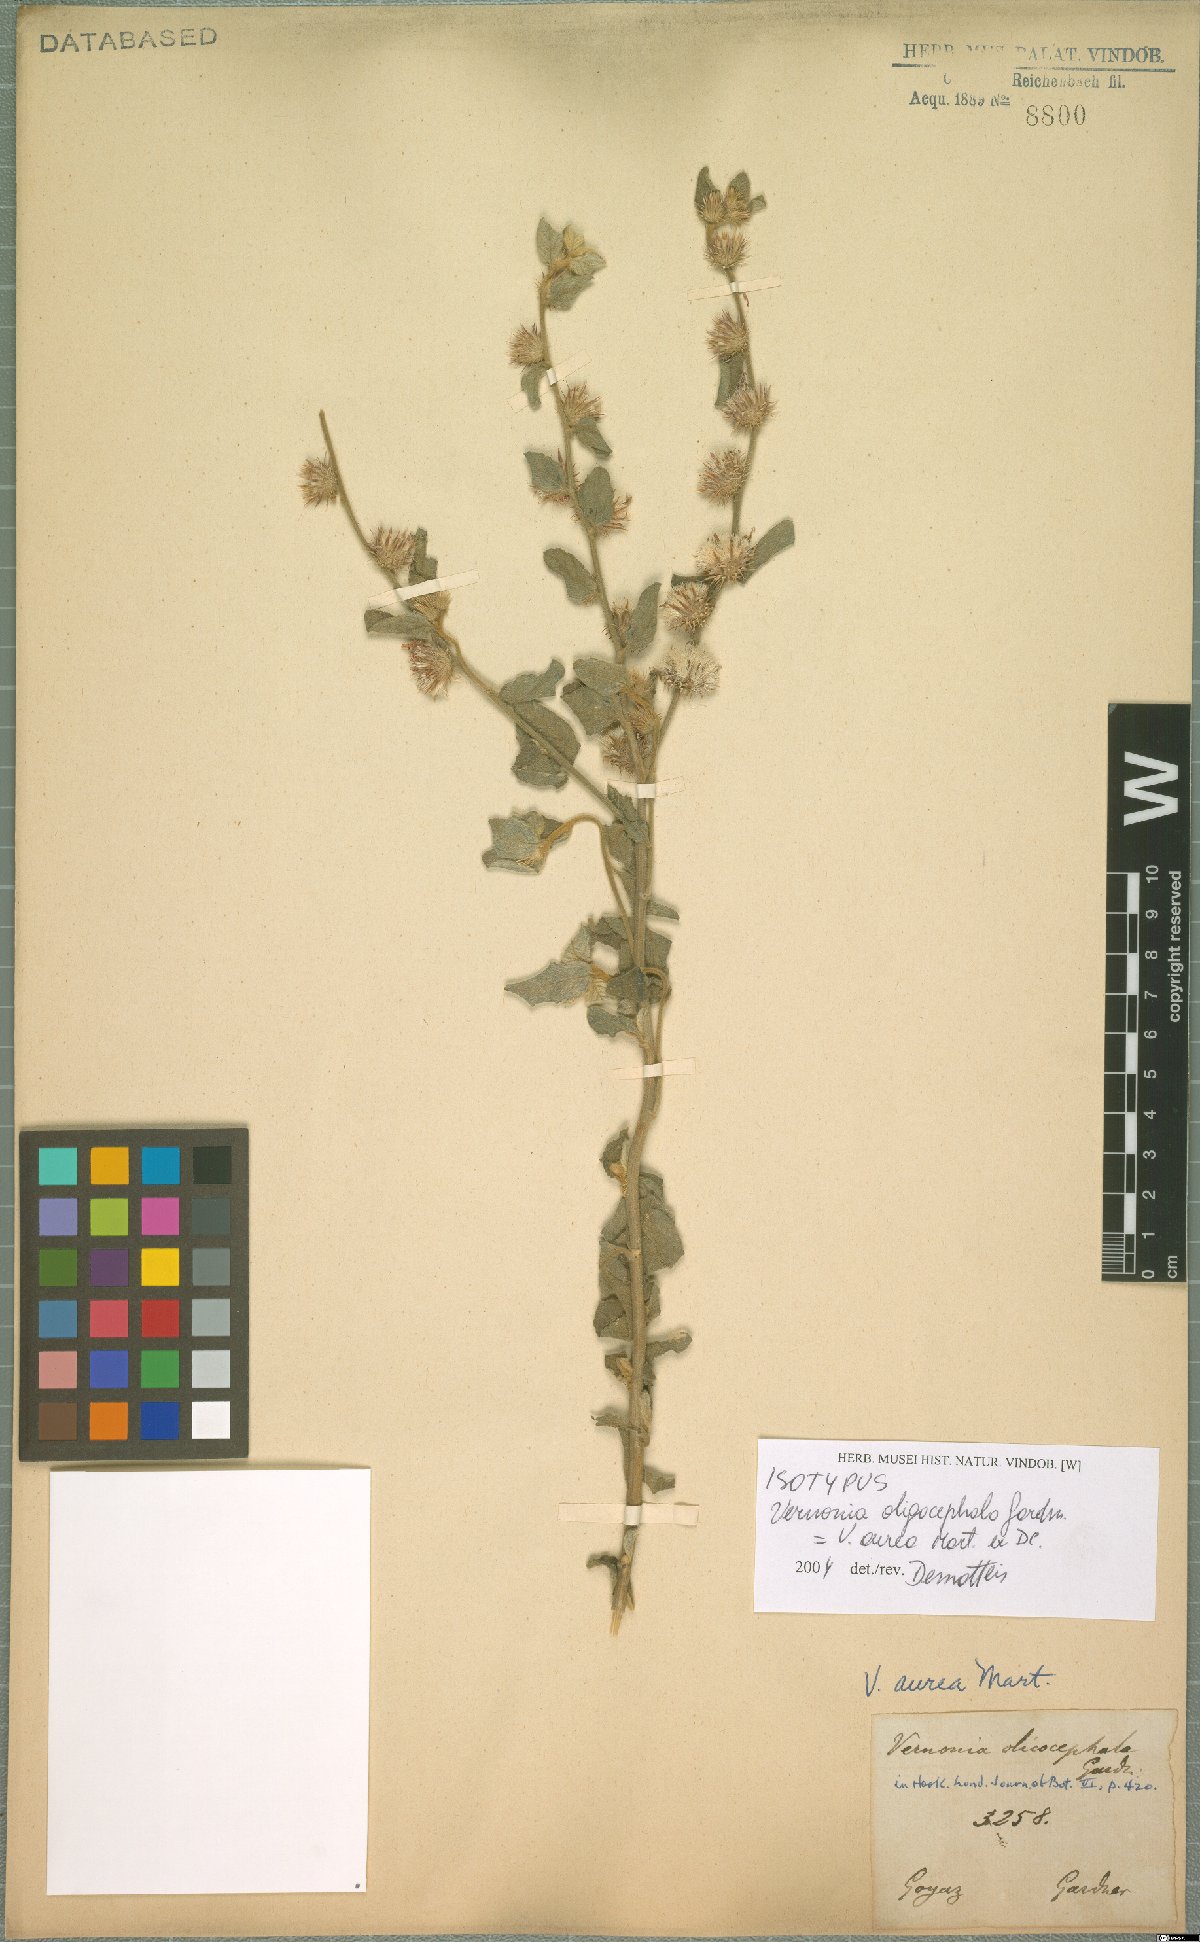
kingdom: Plantae
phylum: Tracheophyta
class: Magnoliopsida
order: Asterales
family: Asteraceae
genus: Lepidaploa
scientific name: Lepidaploa aurea
